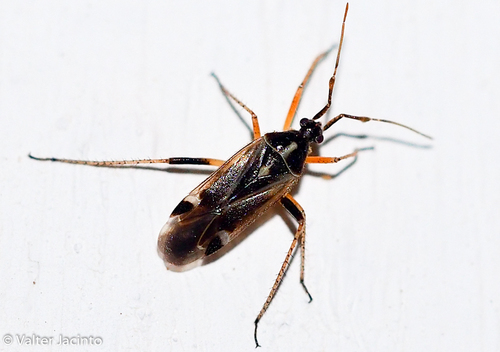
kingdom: Animalia
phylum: Arthropoda
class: Insecta
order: Hemiptera
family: Miridae
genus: Harpocera
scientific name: Harpocera thoracica
